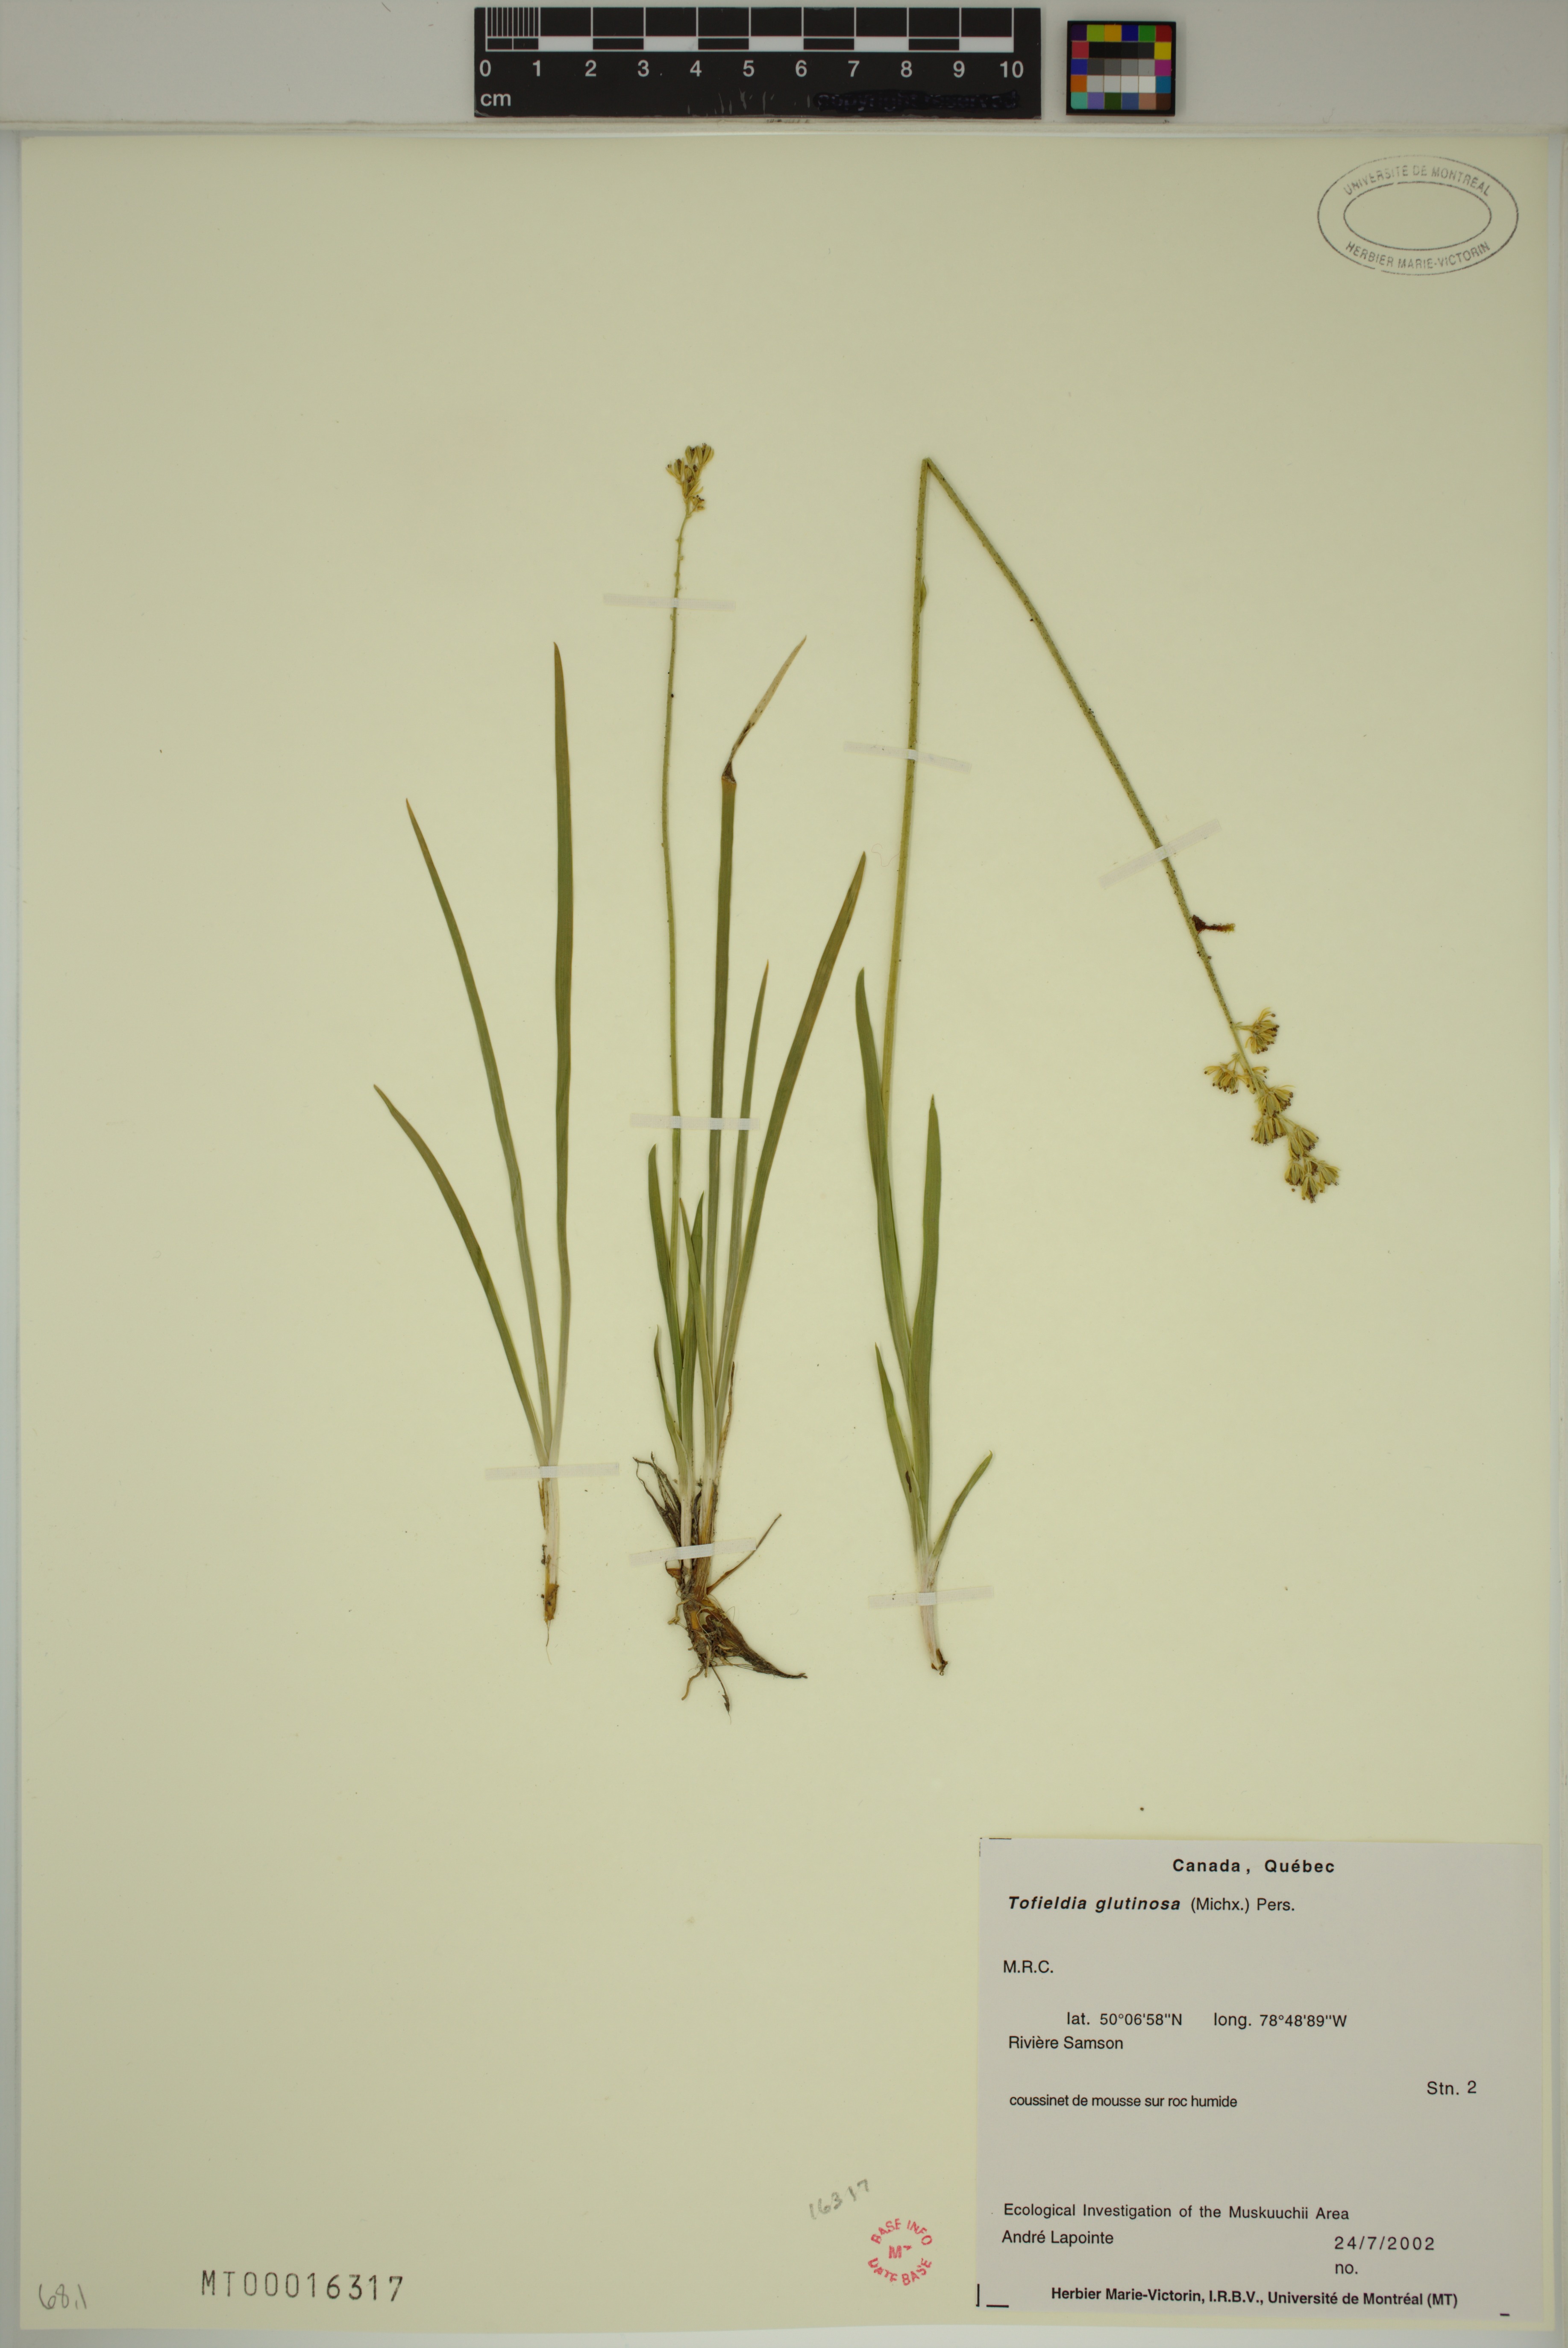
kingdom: Plantae
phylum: Tracheophyta
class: Liliopsida
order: Alismatales
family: Tofieldiaceae
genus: Triantha
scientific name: Triantha glutinosa
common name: Glutinous tofieldia
